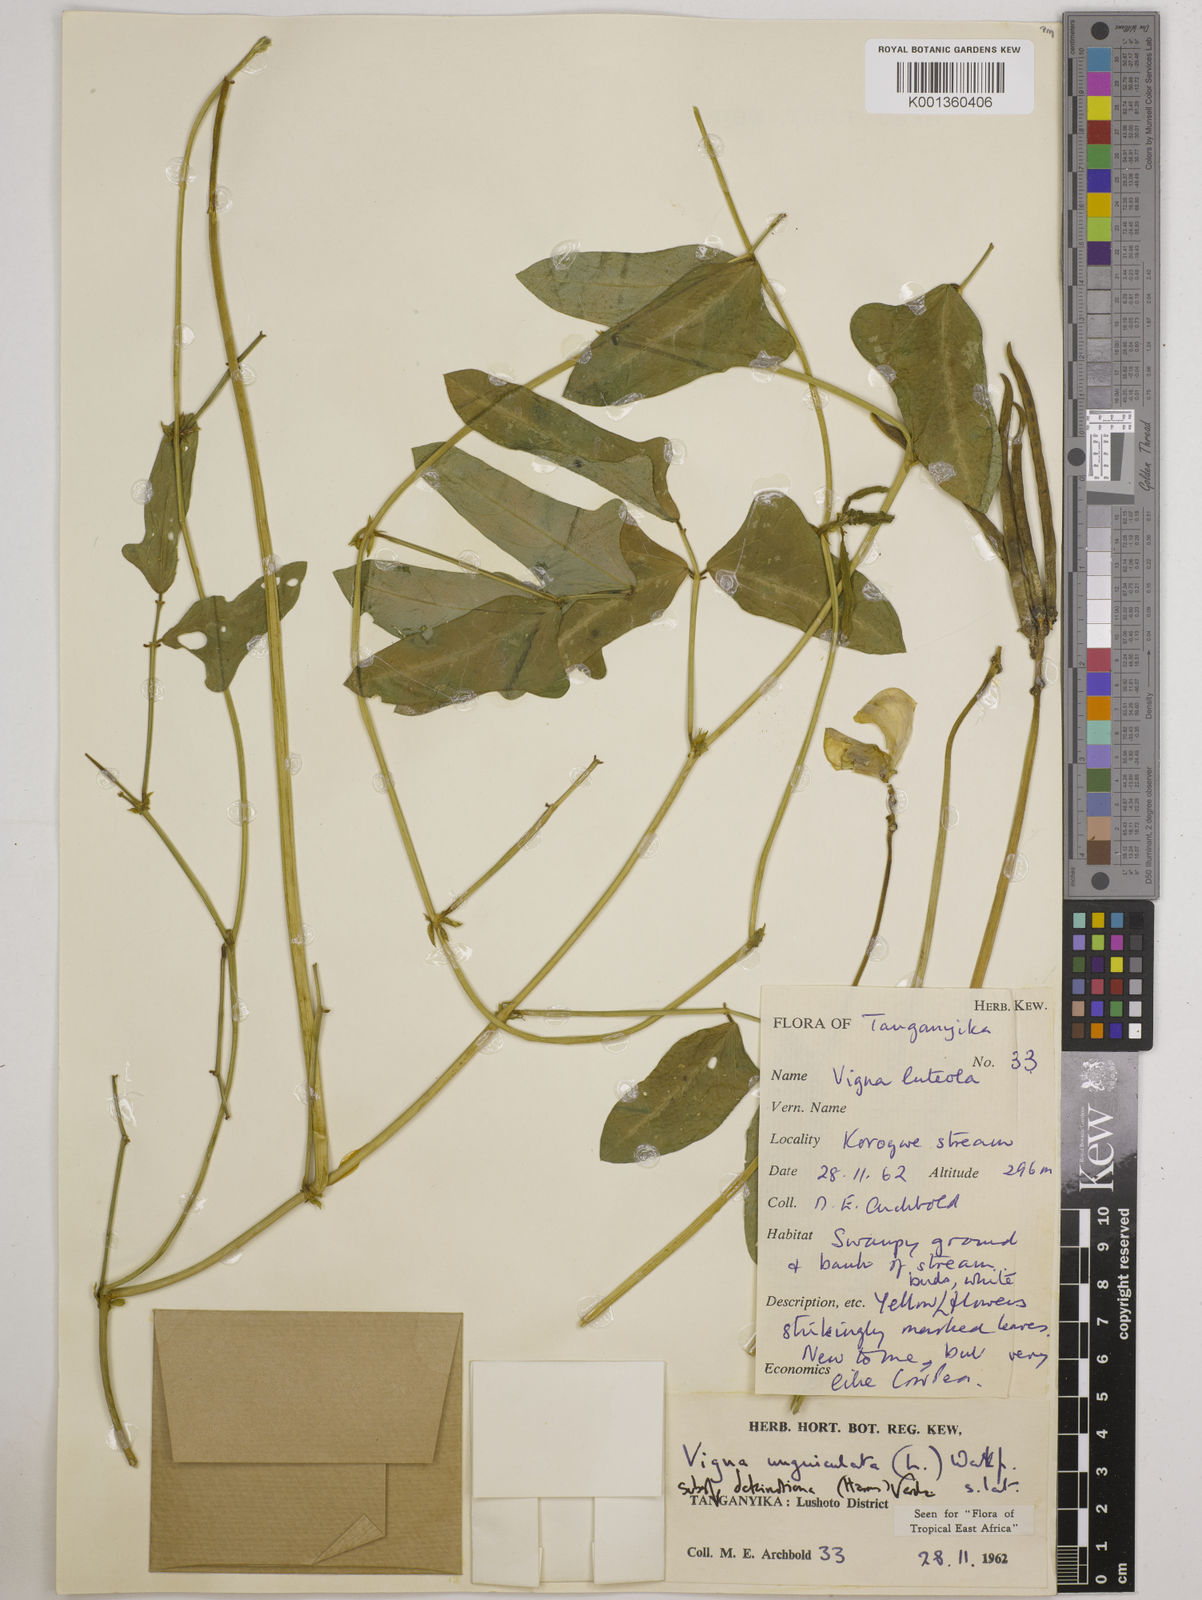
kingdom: Plantae
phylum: Tracheophyta
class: Magnoliopsida
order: Fabales
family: Fabaceae
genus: Vigna
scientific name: Vigna
